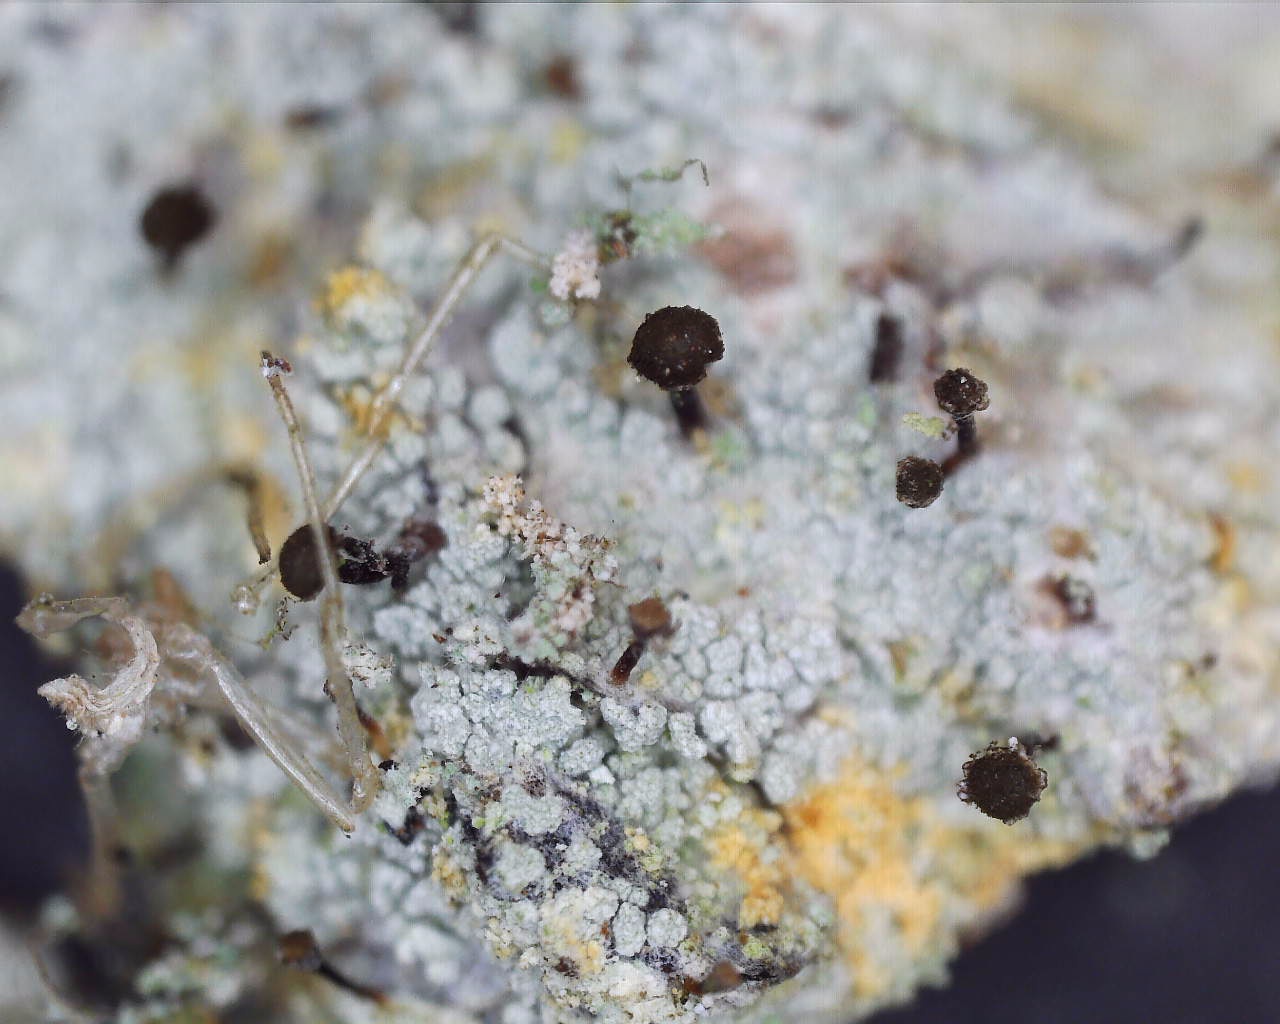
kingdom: Fungi
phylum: Ascomycota
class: Coniocybomycetes
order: Coniocybales
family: Coniocybaceae
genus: Chaenotheca
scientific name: Chaenotheca ferruginea
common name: rustbrun knappenålslav
